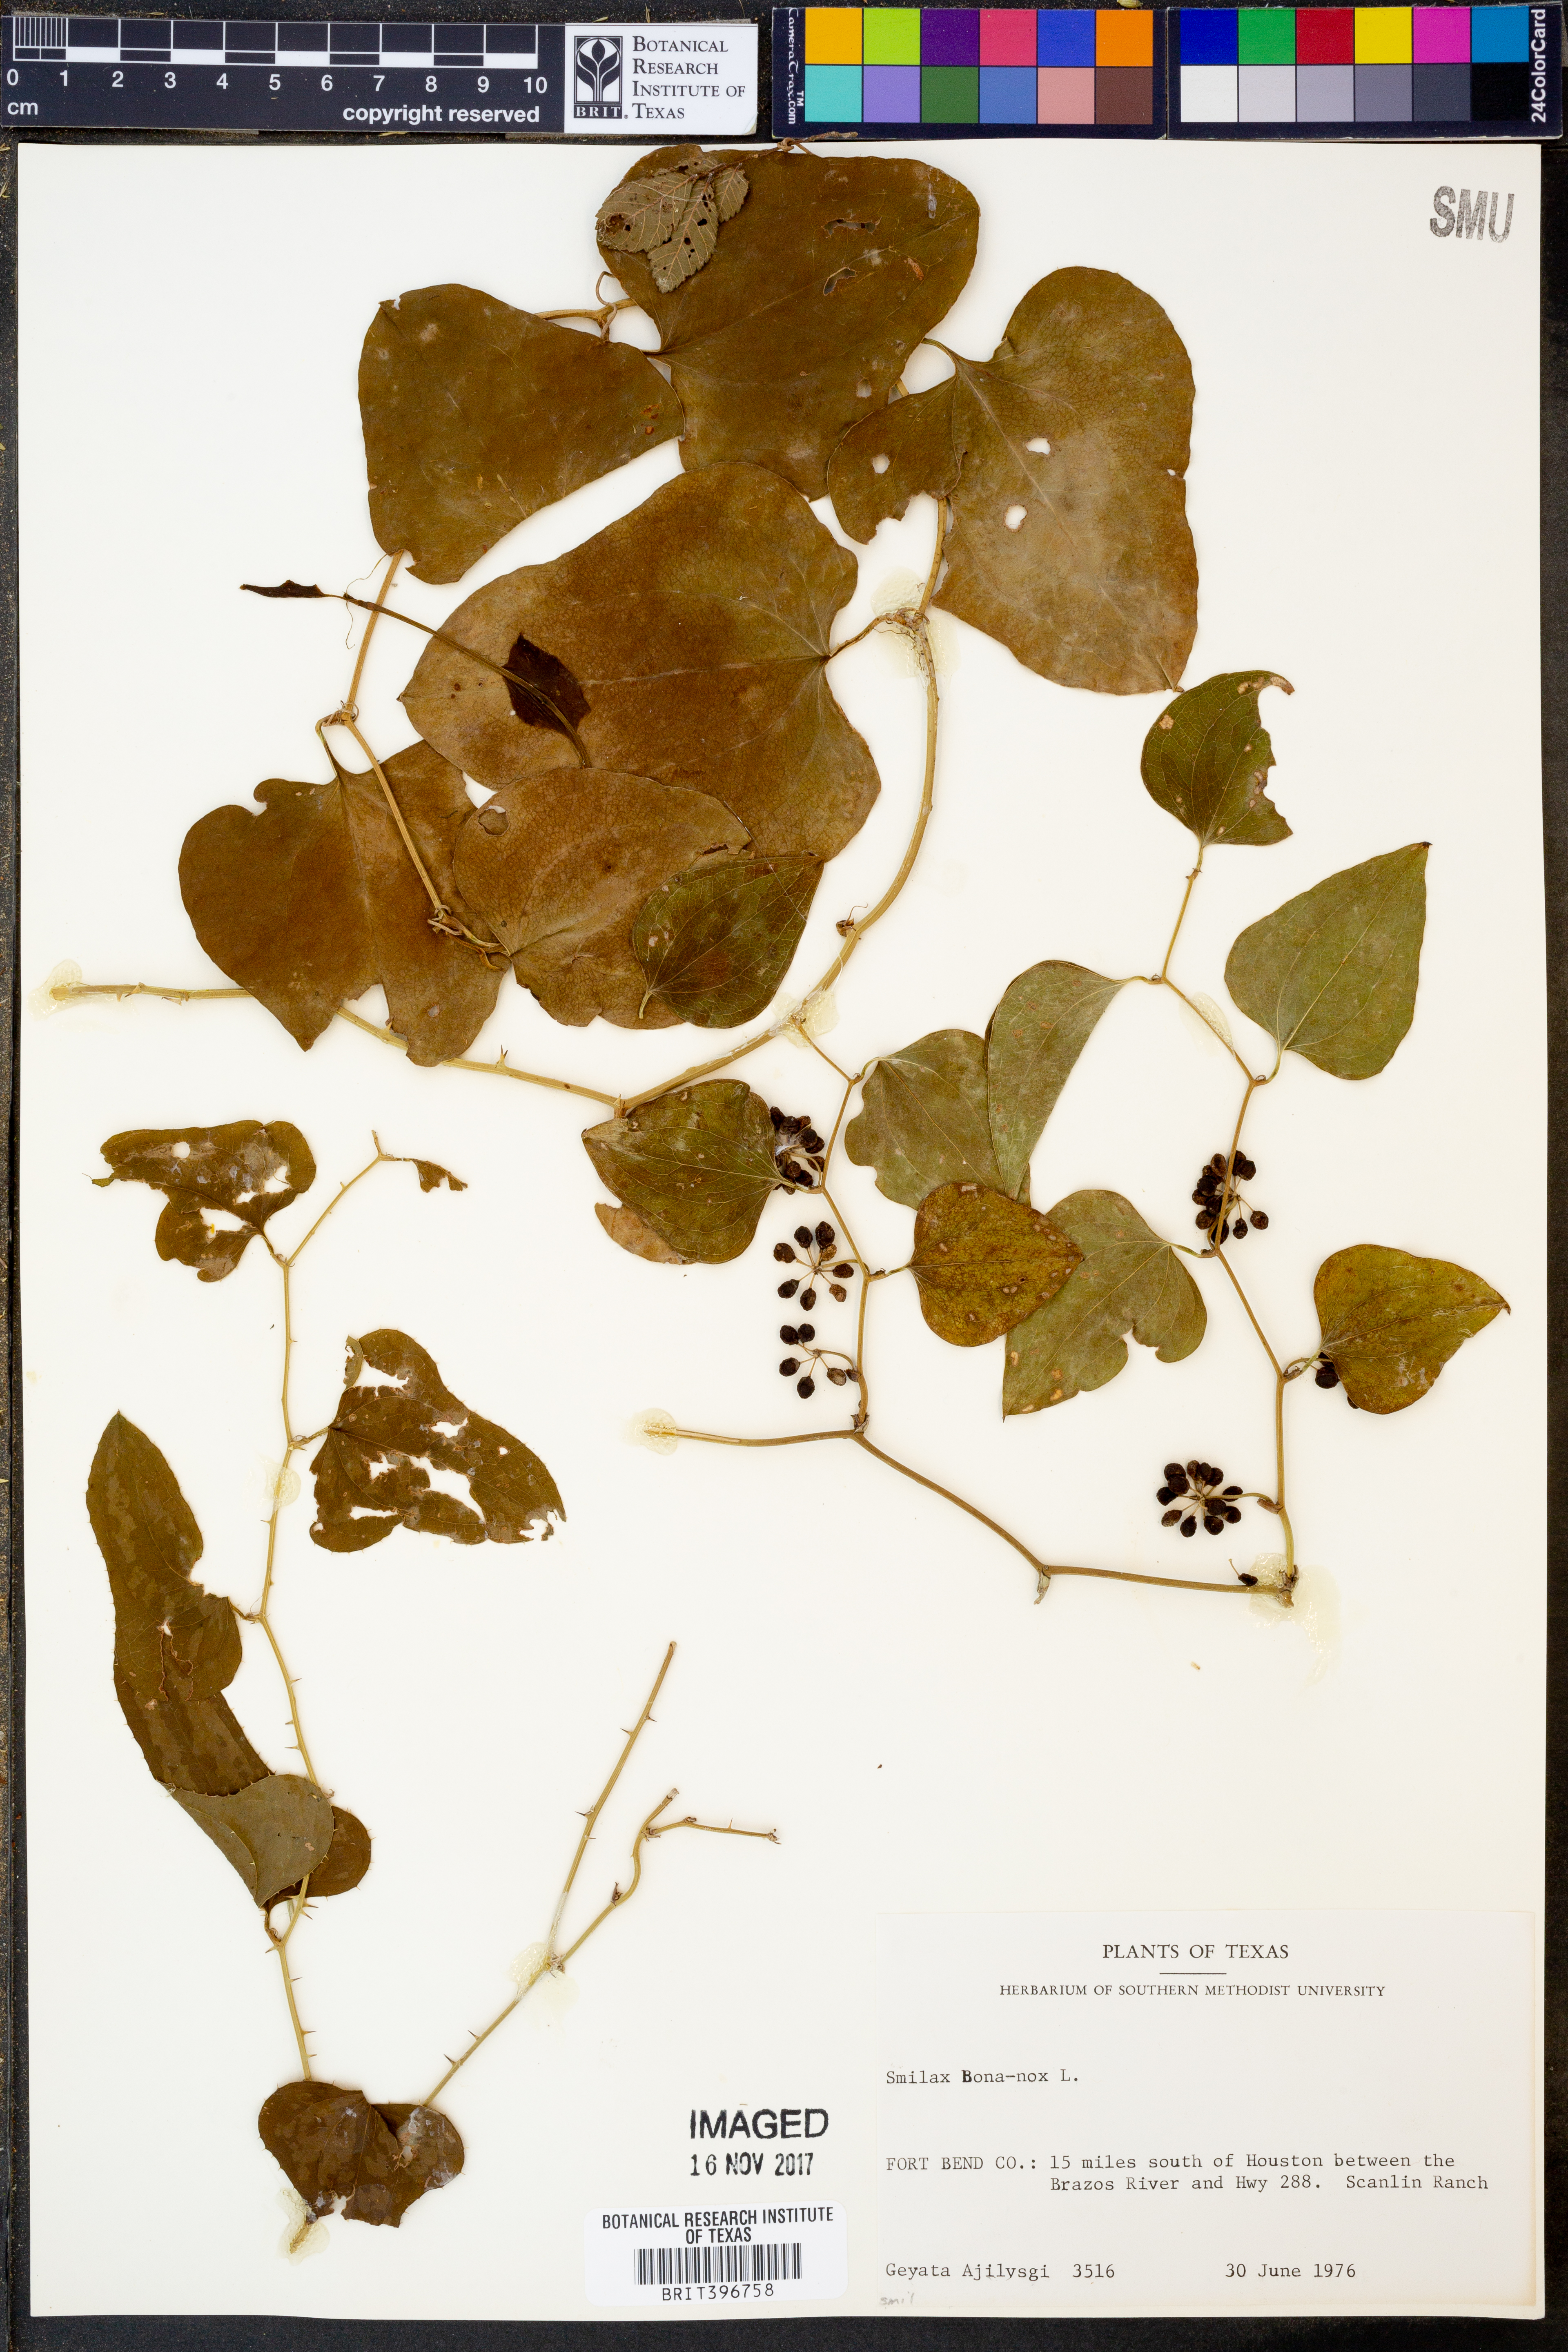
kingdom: Plantae
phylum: Tracheophyta
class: Liliopsida
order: Liliales
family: Smilacaceae
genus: Smilax
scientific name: Smilax bona-nox
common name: Catbrier
